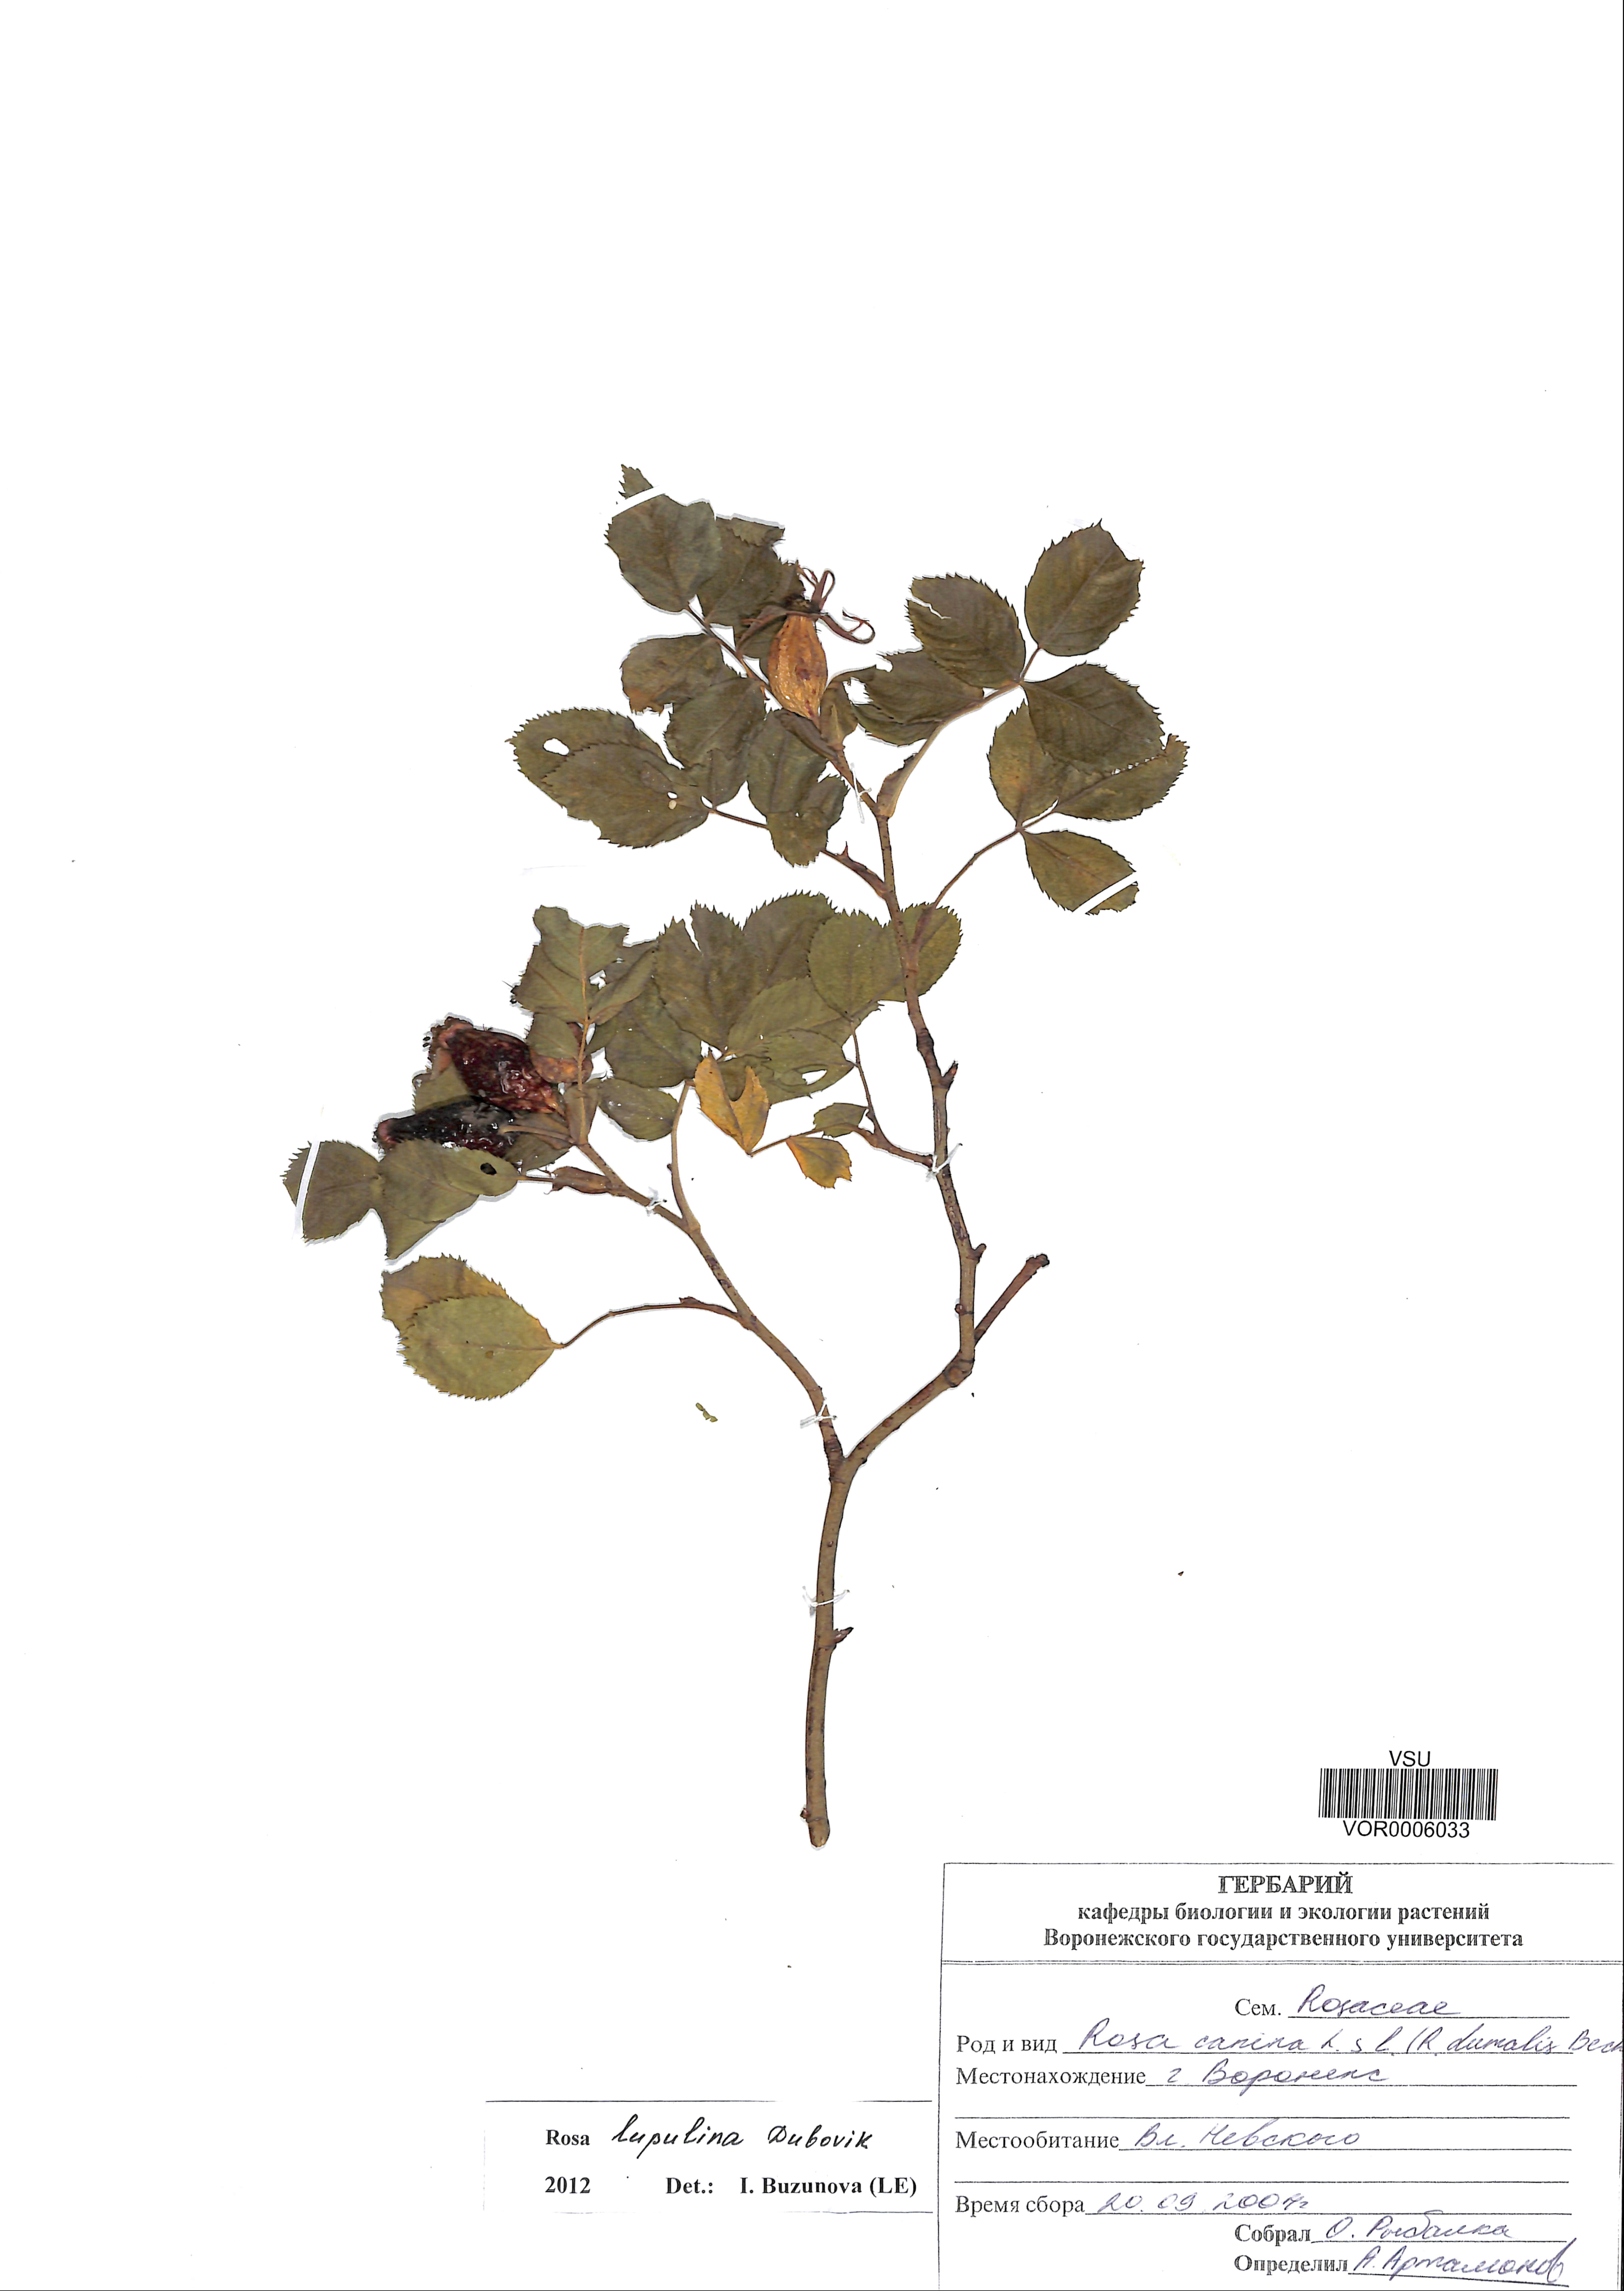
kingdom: Plantae
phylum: Tracheophyta
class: Magnoliopsida
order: Rosales
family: Rosaceae
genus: Rosa
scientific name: Rosa
